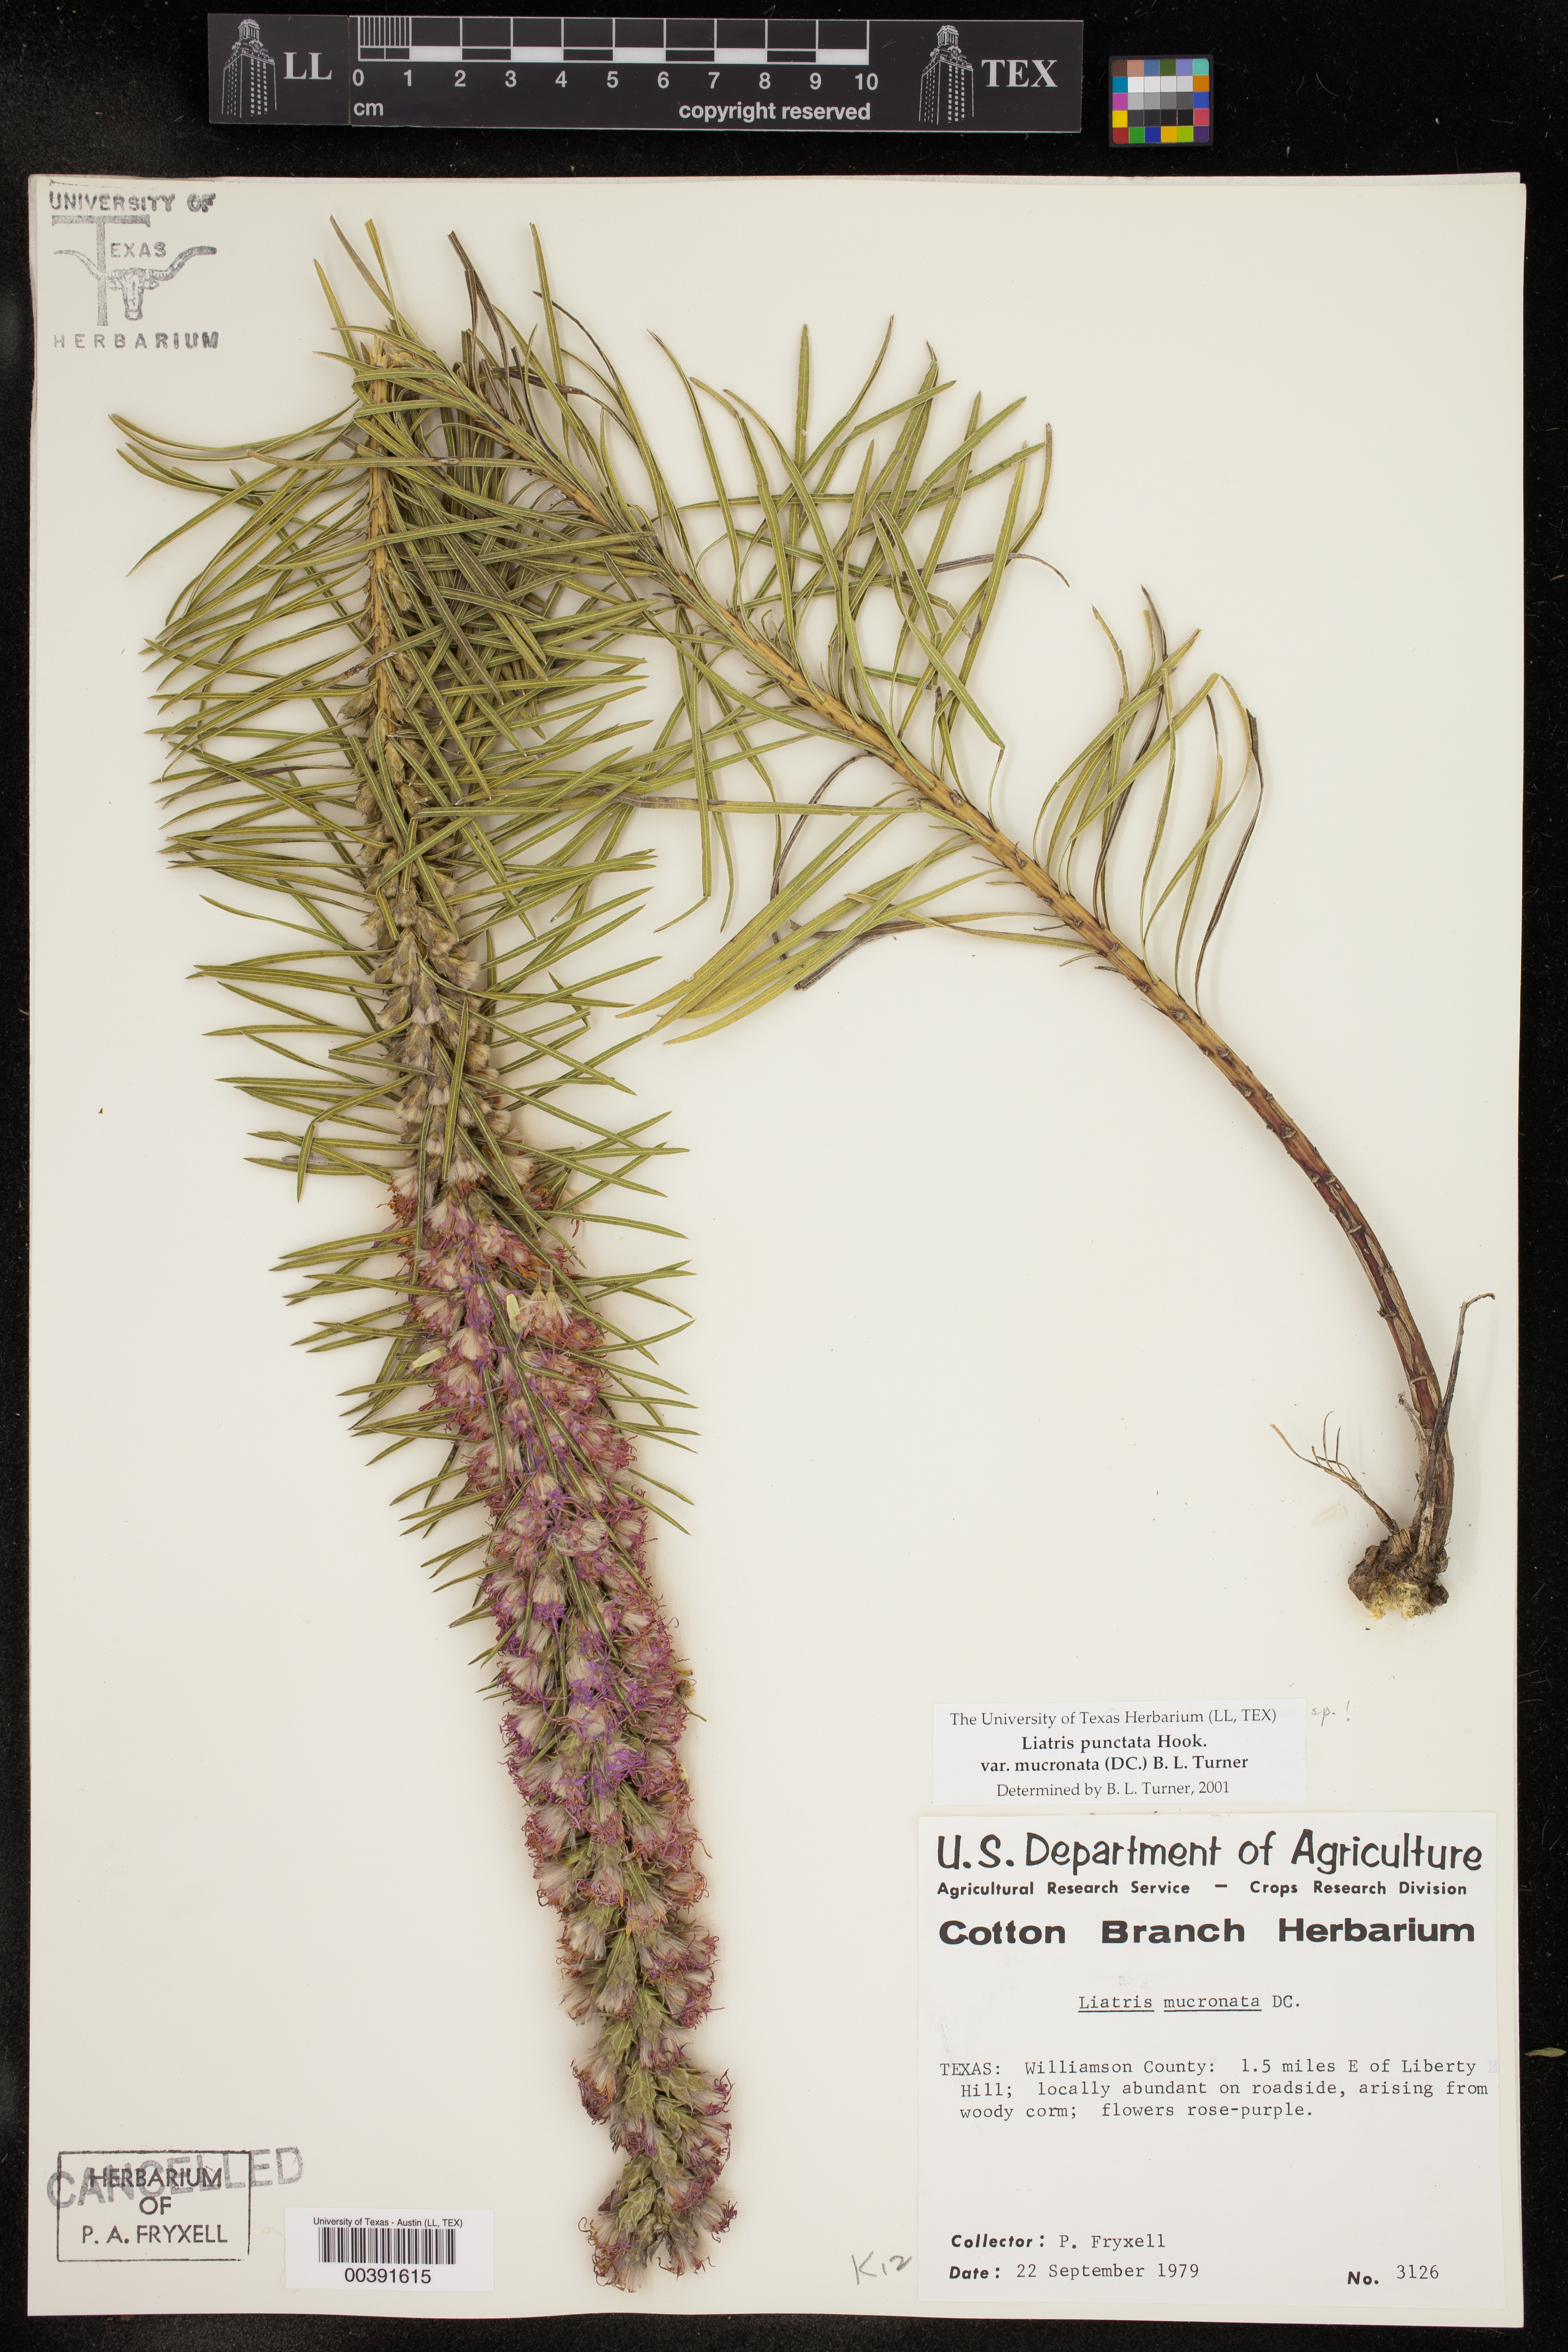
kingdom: Plantae
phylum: Tracheophyta
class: Magnoliopsida
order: Asterales
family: Asteraceae
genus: Liatris
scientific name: Liatris punctata
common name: Dotted gayfeather
